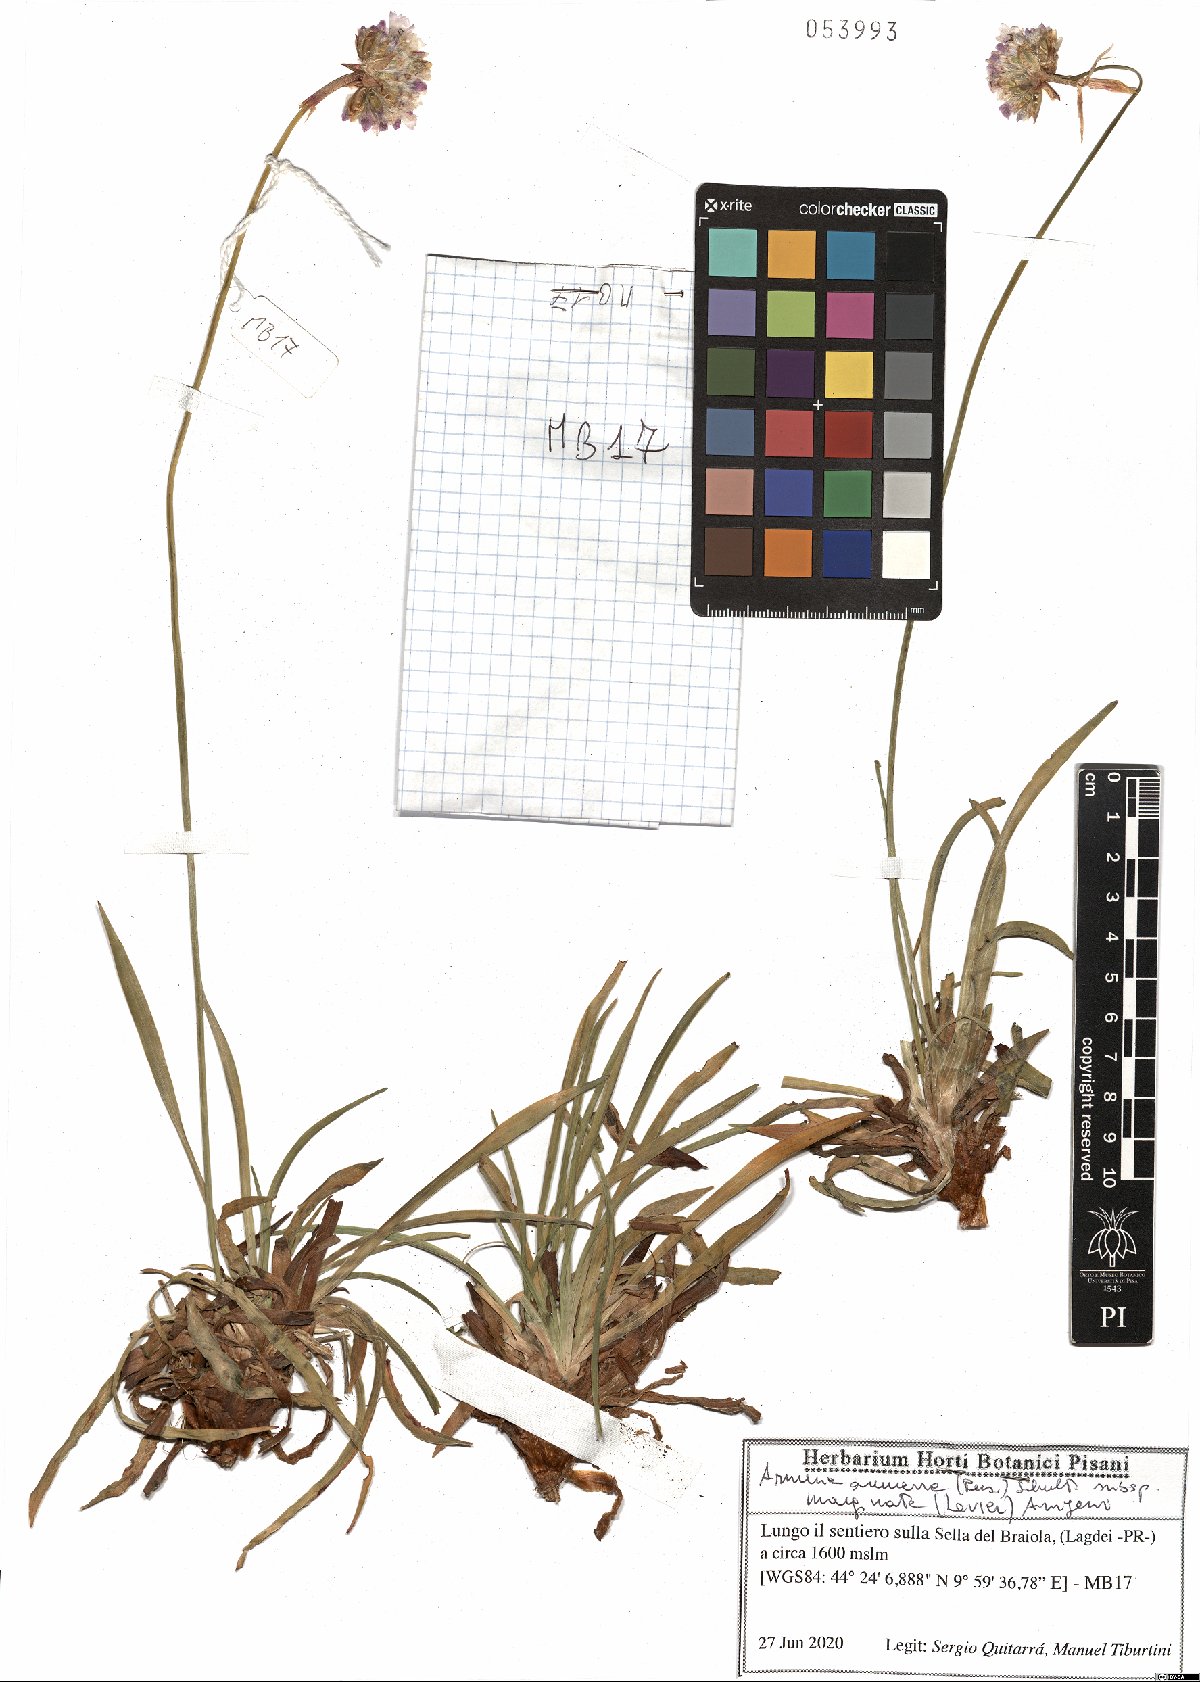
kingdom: Plantae
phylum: Tracheophyta
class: Magnoliopsida
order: Caryophyllales
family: Plumbaginaceae
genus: Armeria
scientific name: Armeria arenaria
